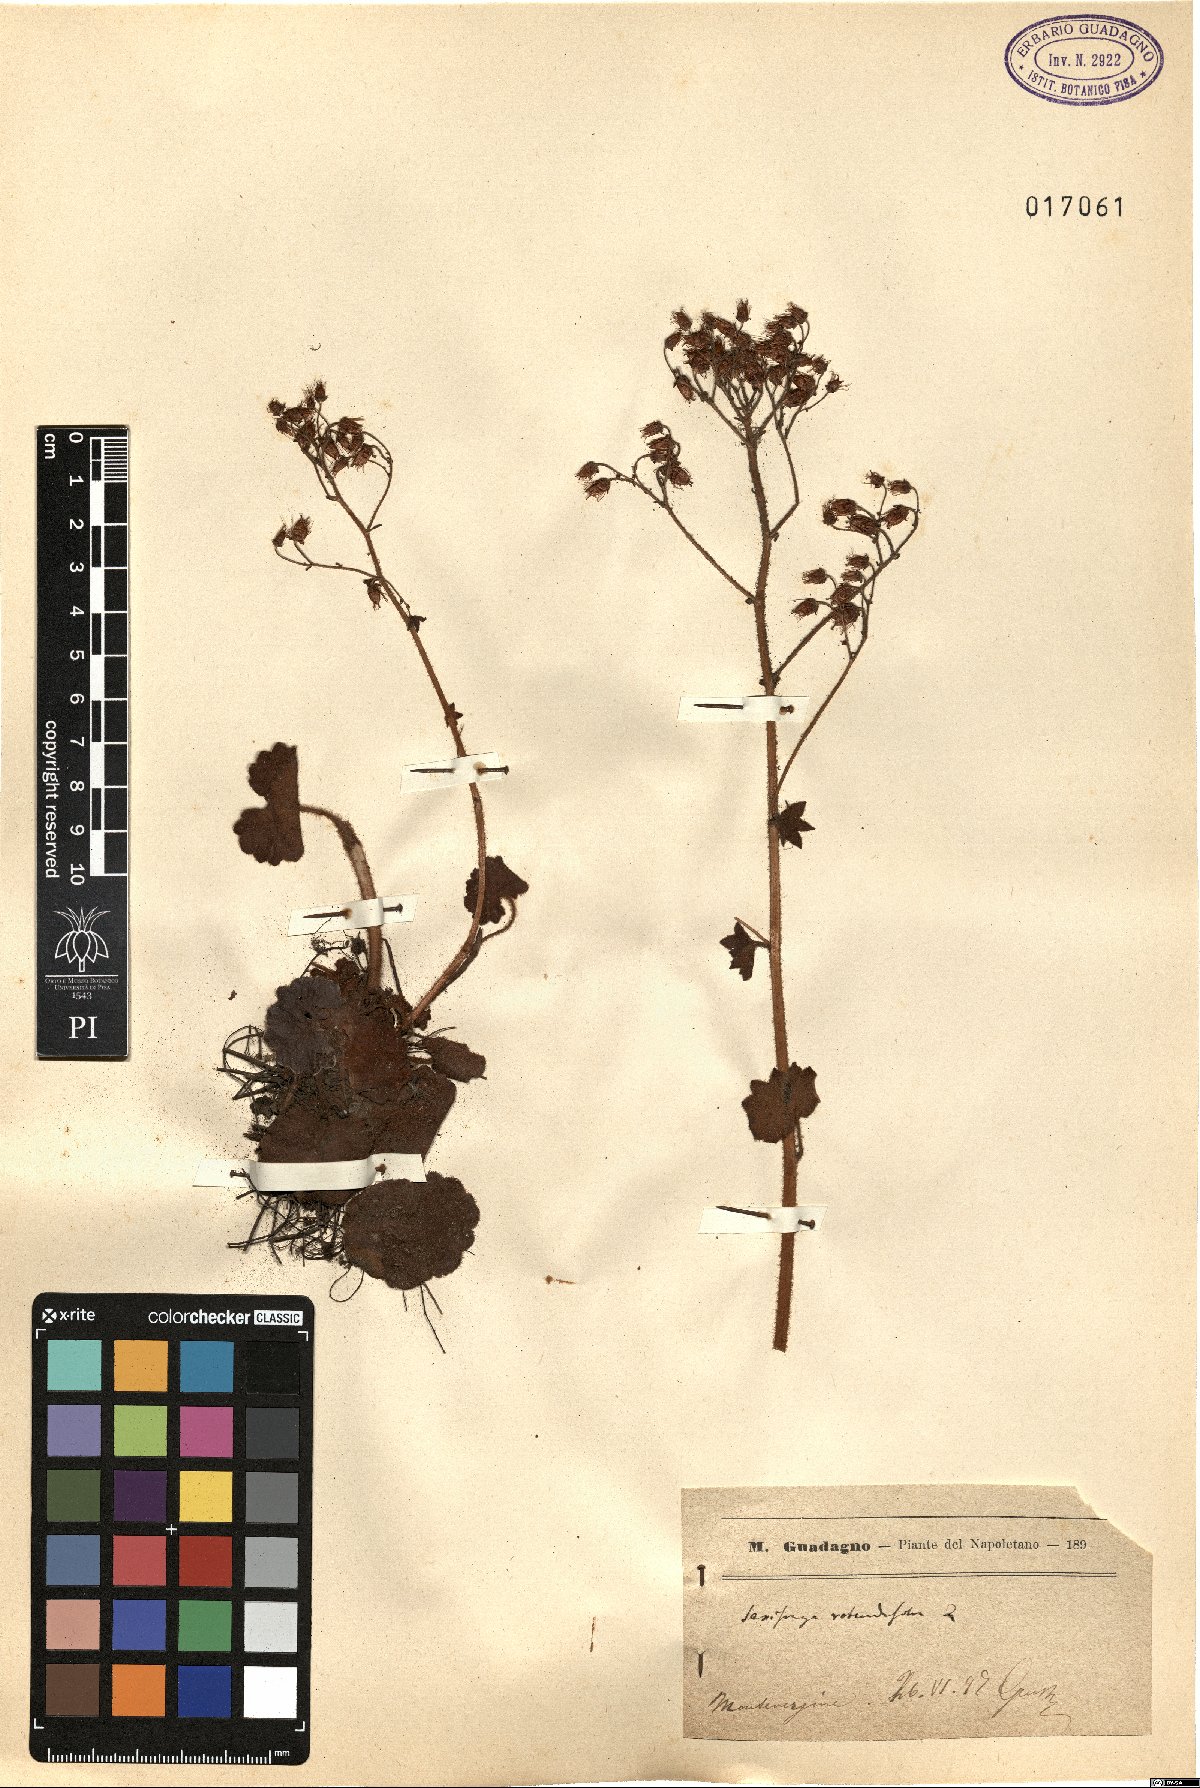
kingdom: Plantae
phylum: Tracheophyta
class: Magnoliopsida
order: Saxifragales
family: Saxifragaceae
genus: Saxifraga
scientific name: Saxifraga rotundifolia
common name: Round-leaved saxifrage
